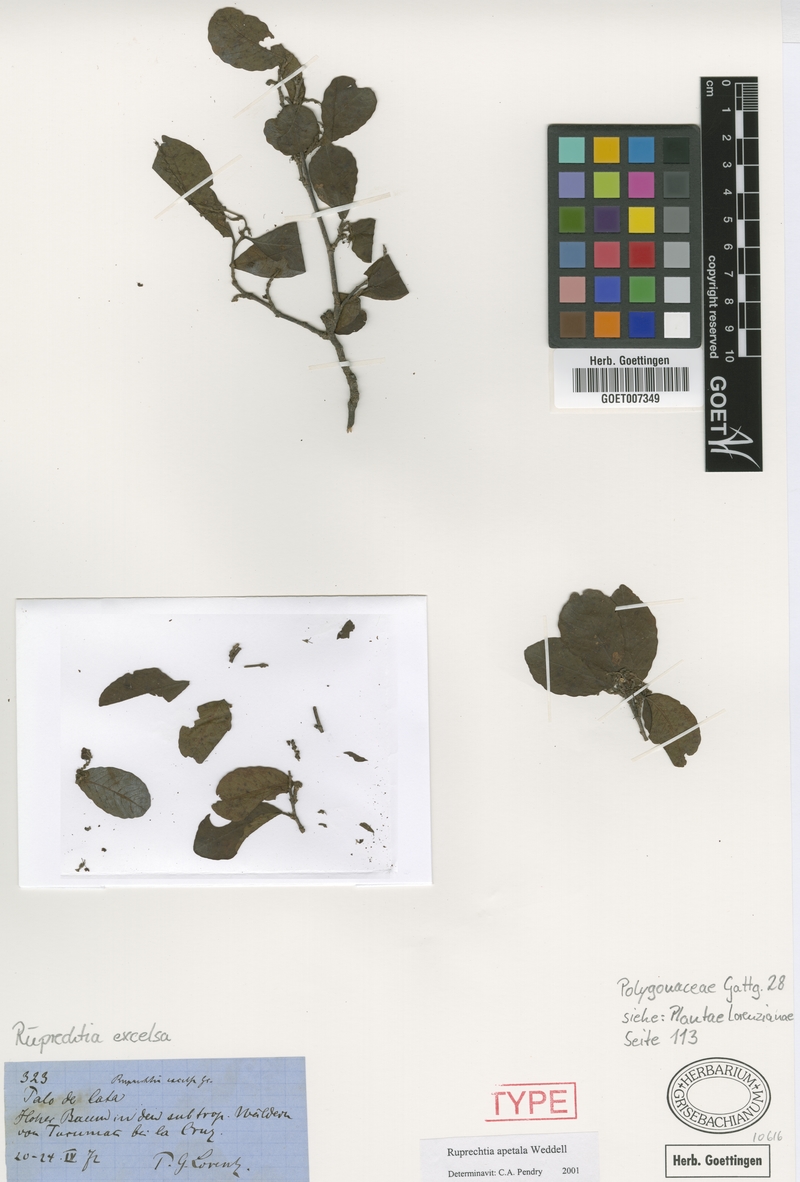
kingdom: Plantae
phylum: Tracheophyta
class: Magnoliopsida
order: Caryophyllales
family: Polygonaceae
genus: Ruprechtia
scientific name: Ruprechtia apetala
